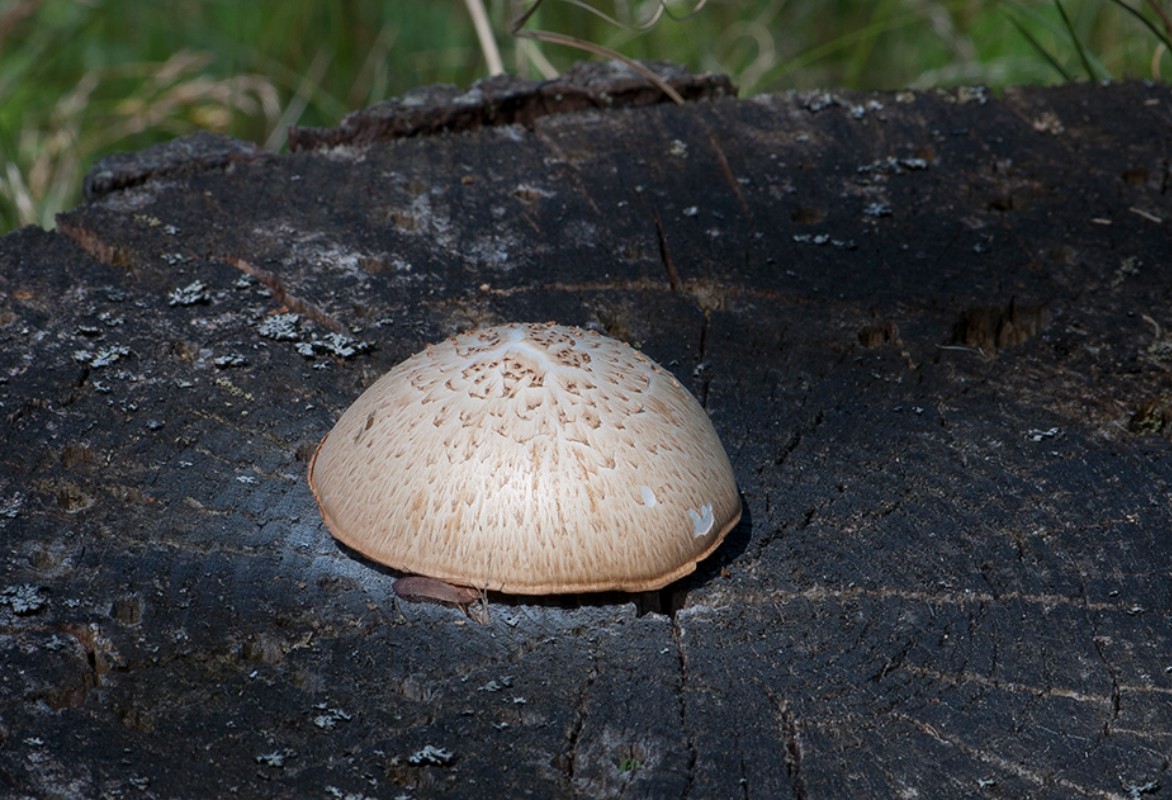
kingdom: Fungi
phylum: Basidiomycota
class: Agaricomycetes
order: Gloeophyllales
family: Gloeophyllaceae
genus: Neolentinus
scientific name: Neolentinus lepideus
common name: skællet sejhat
